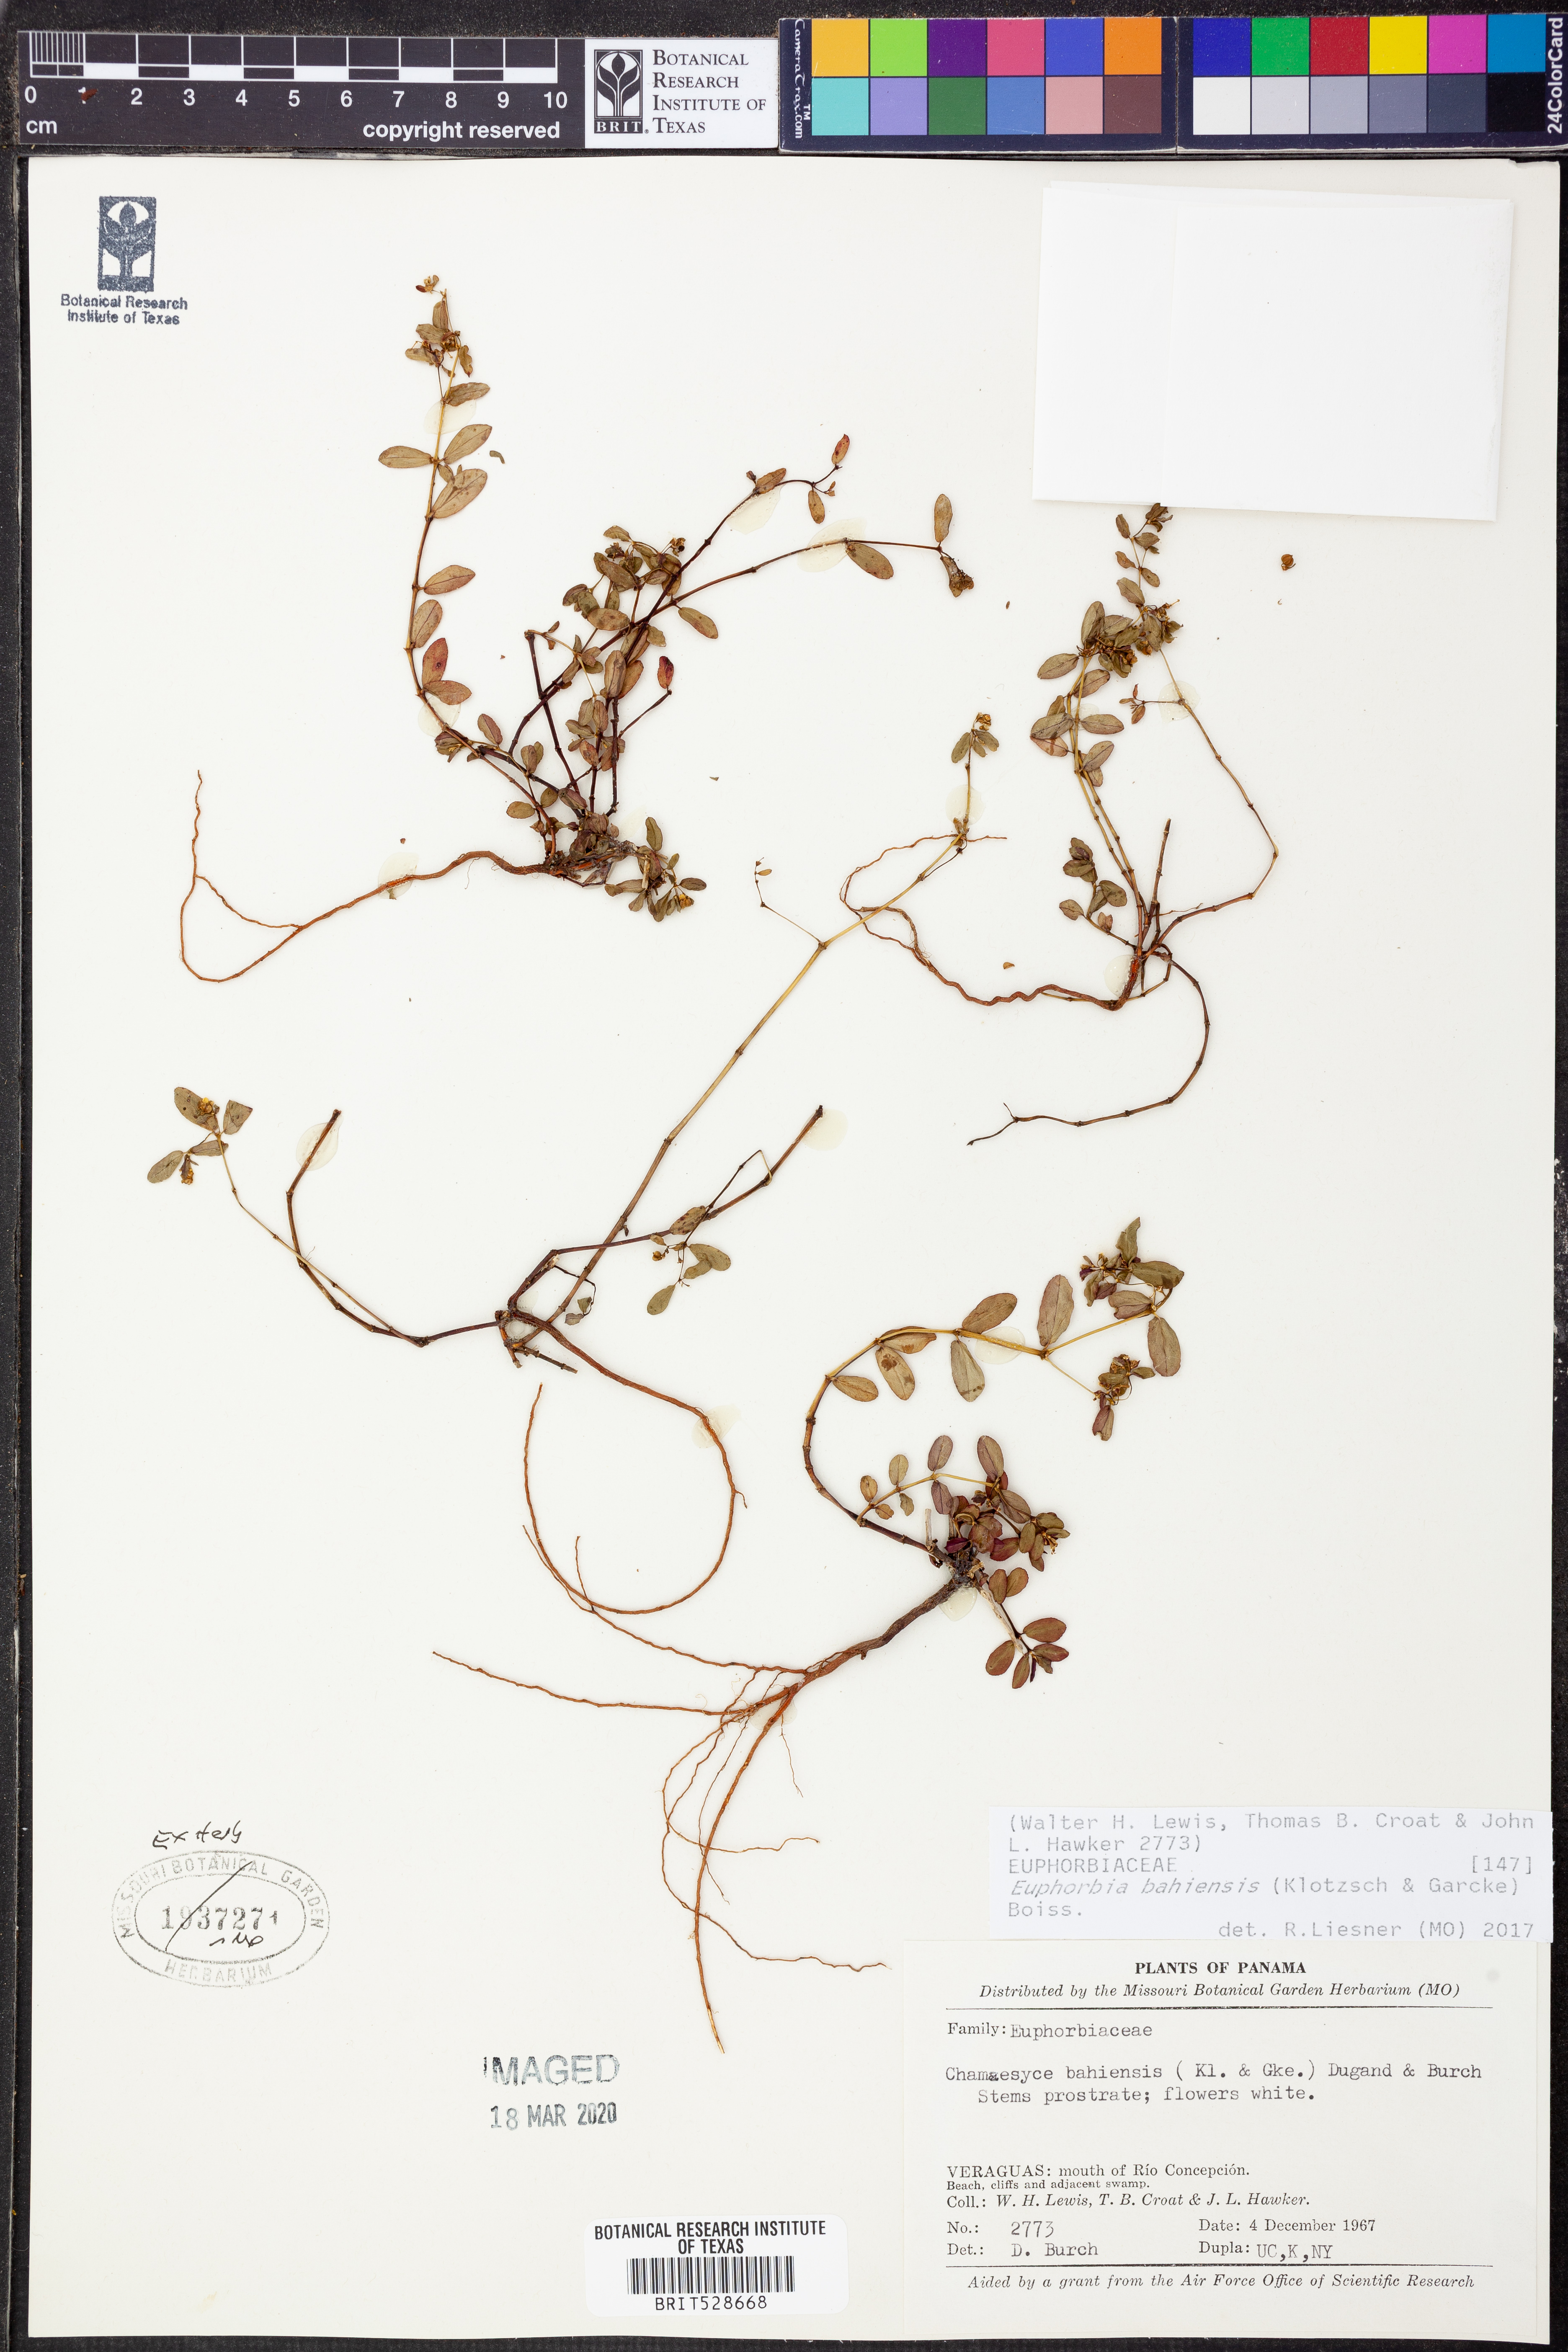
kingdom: Plantae
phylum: Tracheophyta
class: Magnoliopsida
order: Malpighiales
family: Euphorbiaceae
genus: Euphorbia
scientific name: Euphorbia bahiensis
